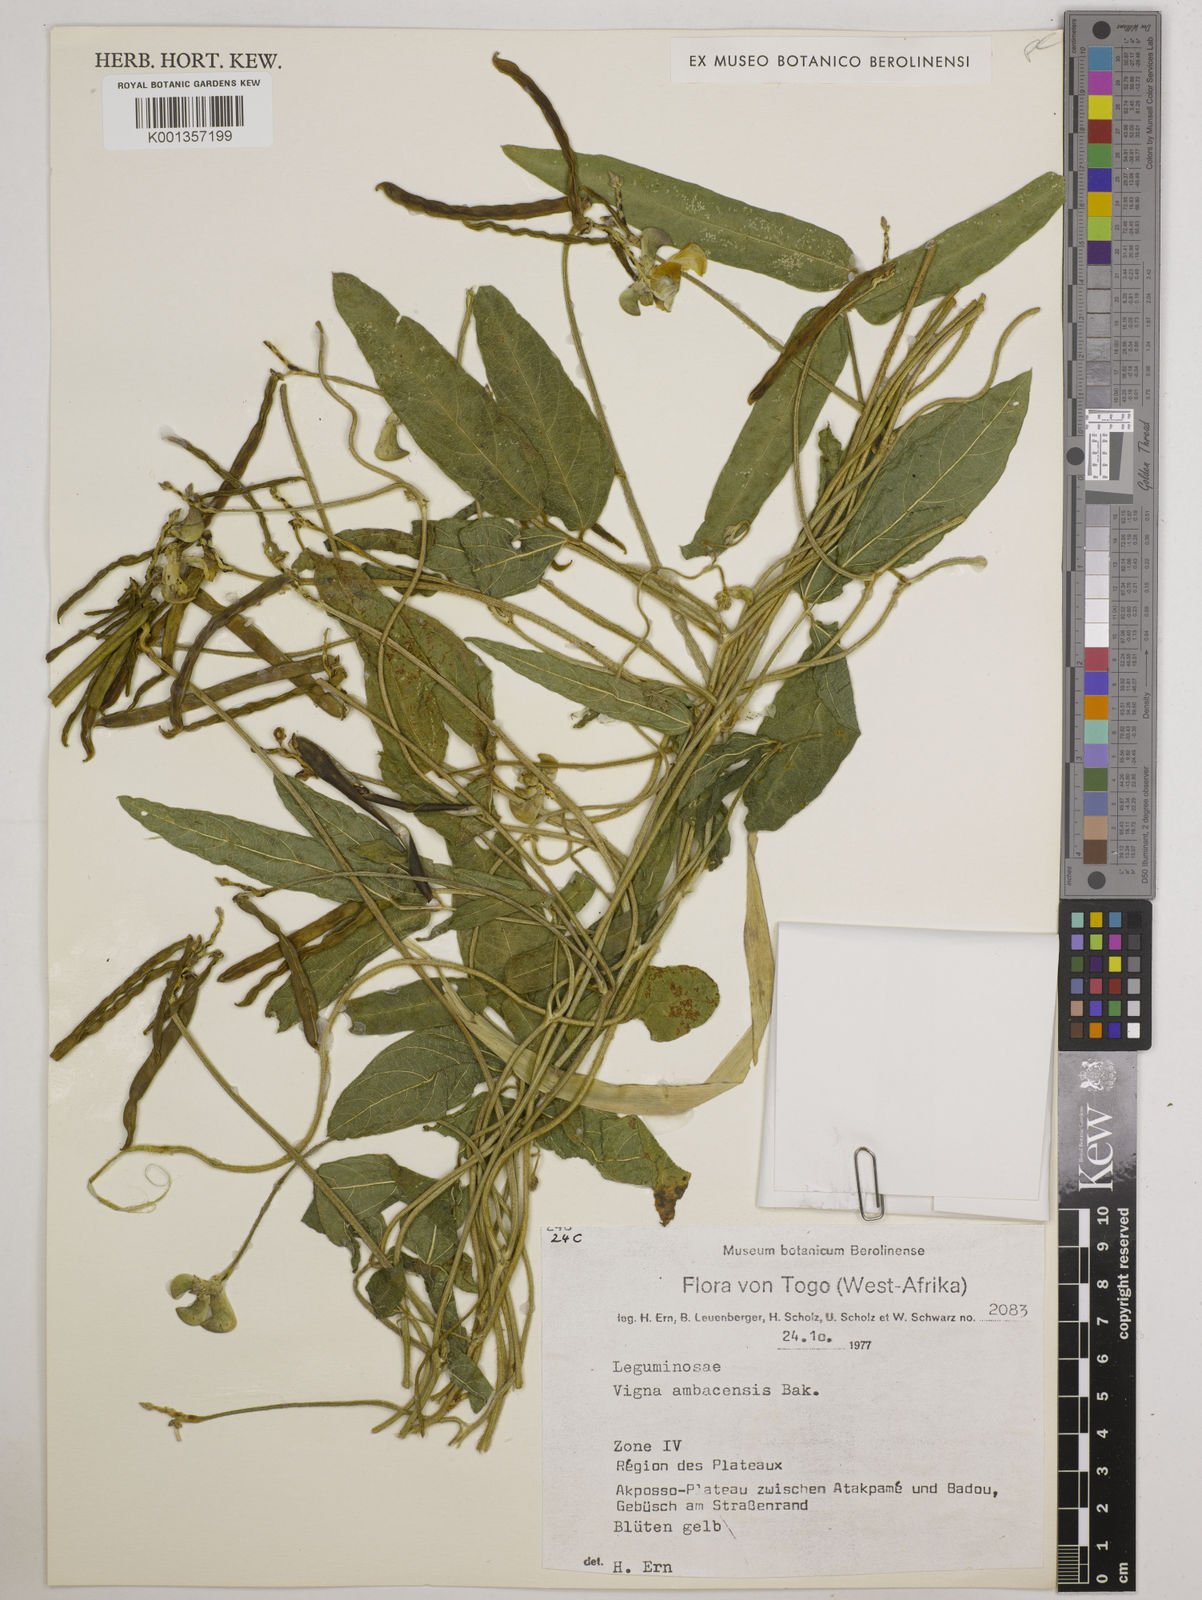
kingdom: Plantae
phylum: Tracheophyta
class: Magnoliopsida
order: Fabales
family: Fabaceae
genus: Vigna
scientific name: Vigna ambacensis
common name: Tsarkiyan zomo
